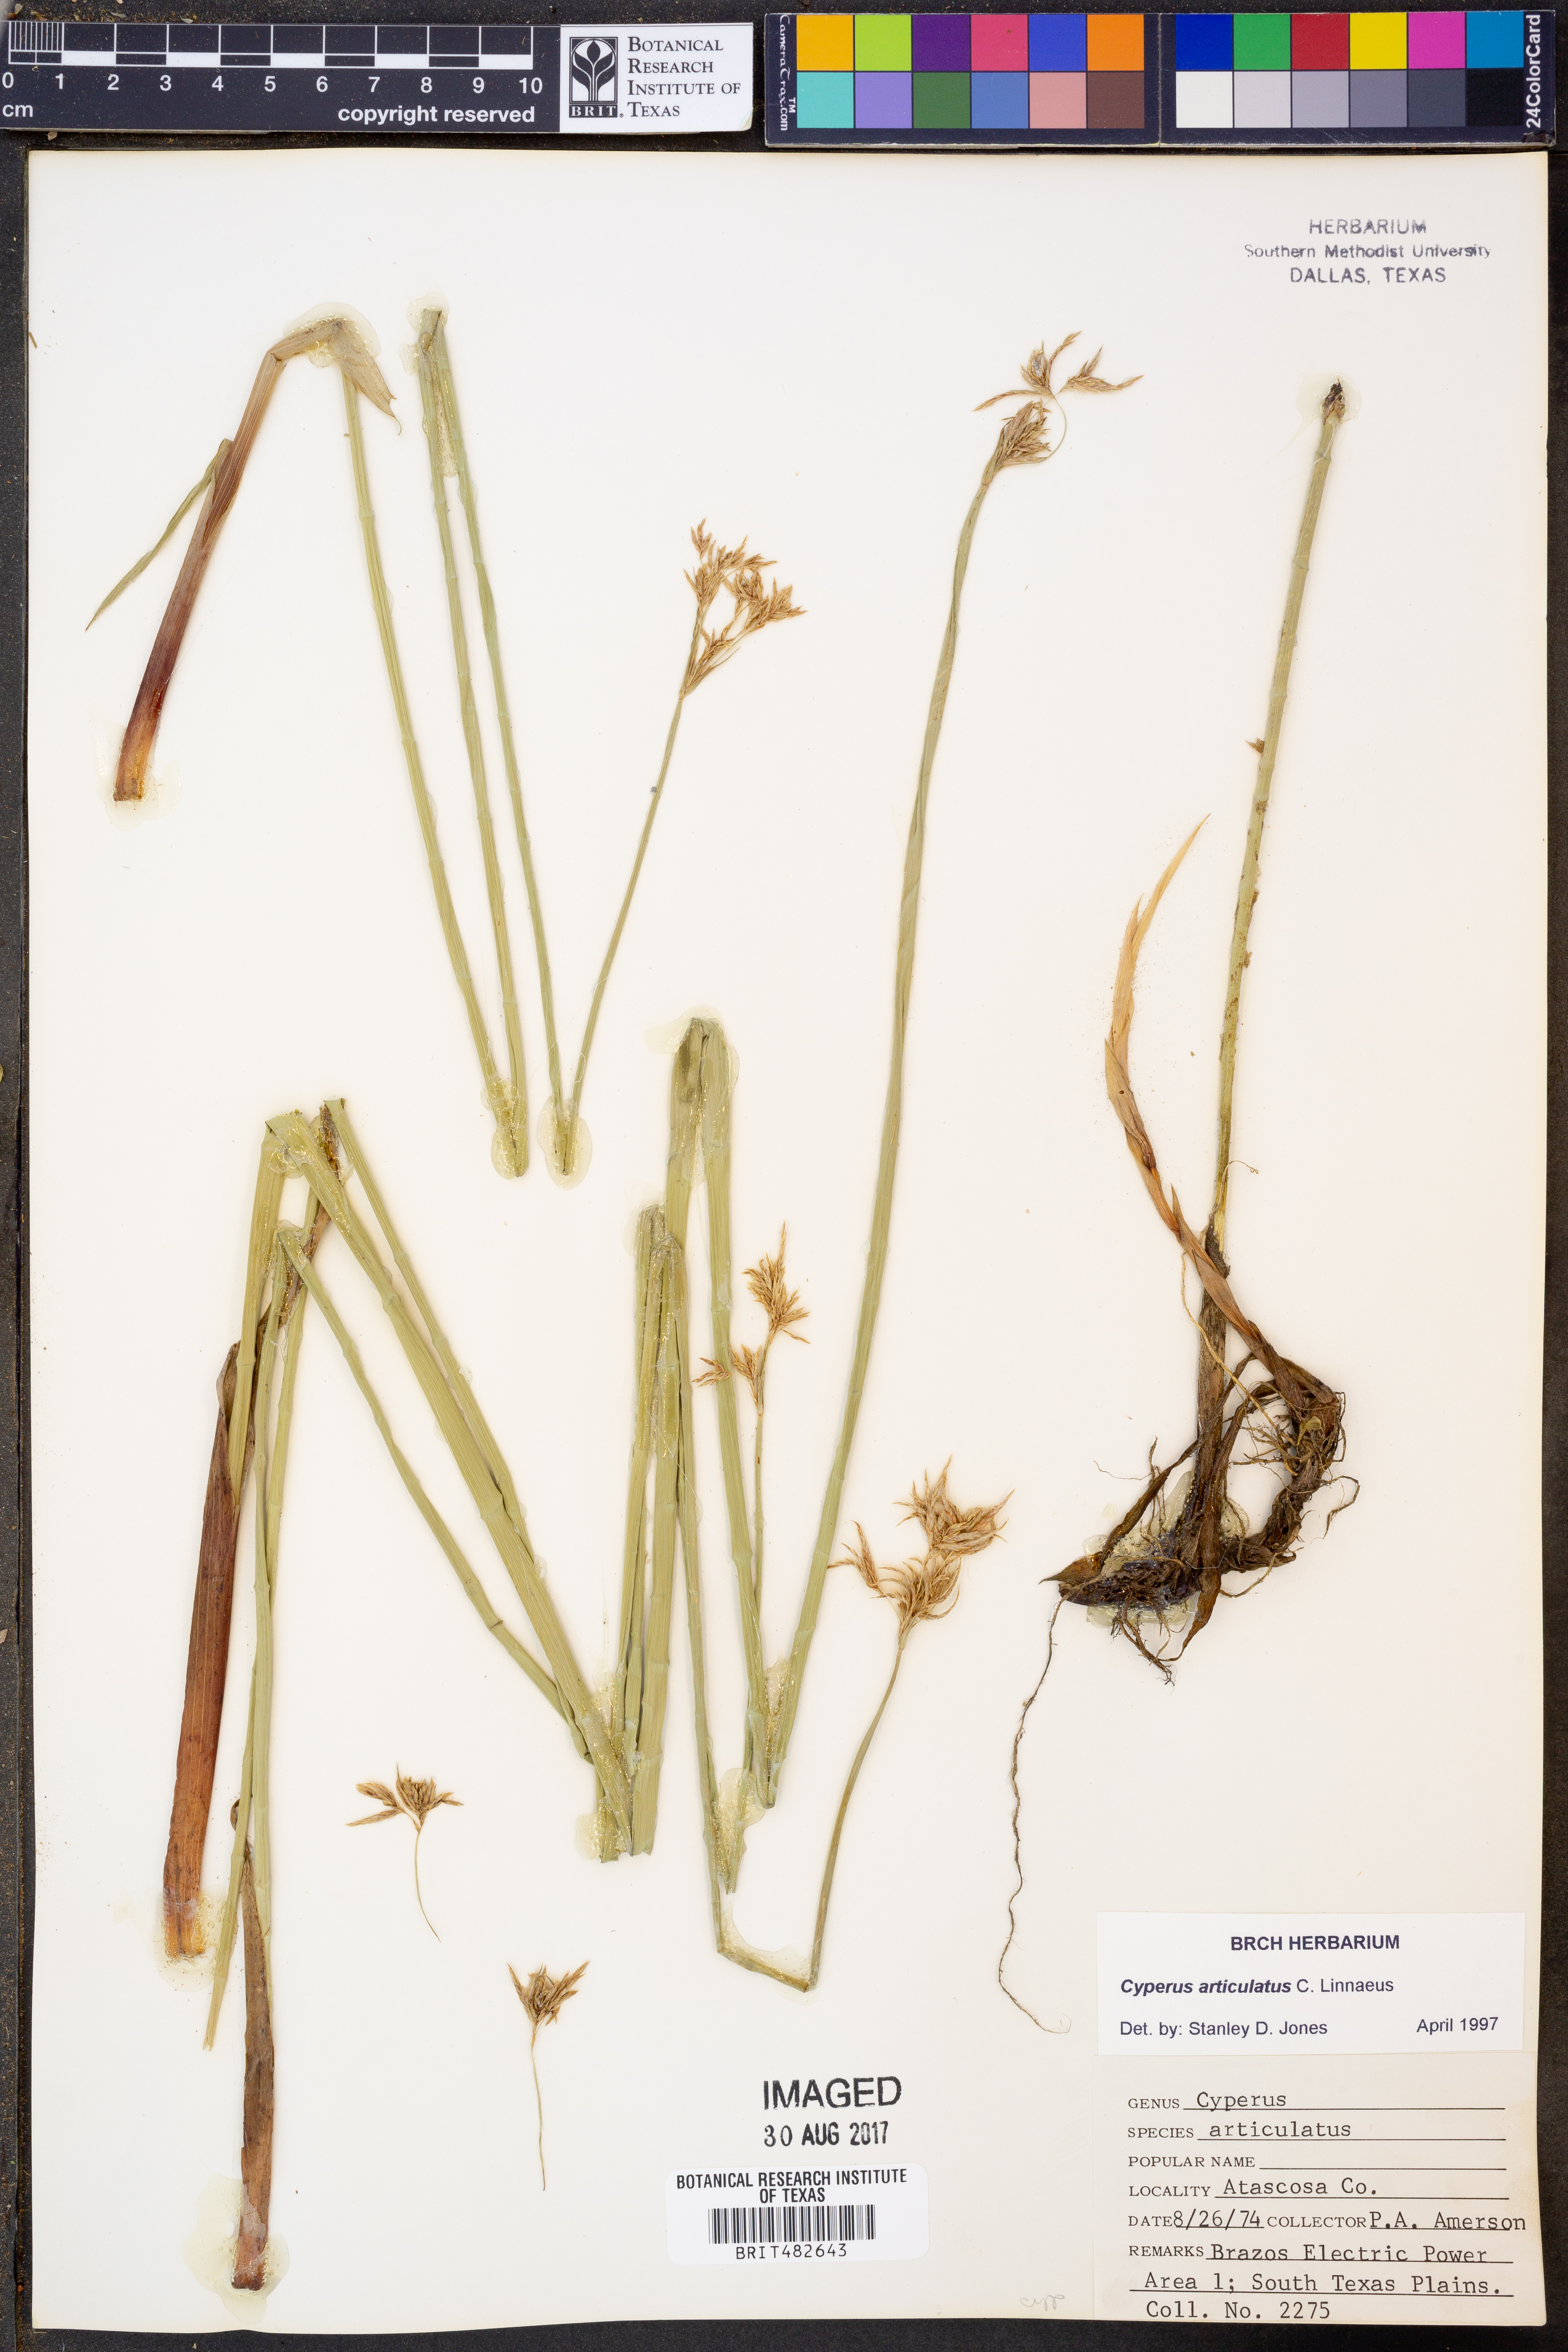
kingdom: Plantae
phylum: Tracheophyta
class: Liliopsida
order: Poales
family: Cyperaceae
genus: Cyperus
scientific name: Cyperus articulatus
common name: Jointed flatsedge
